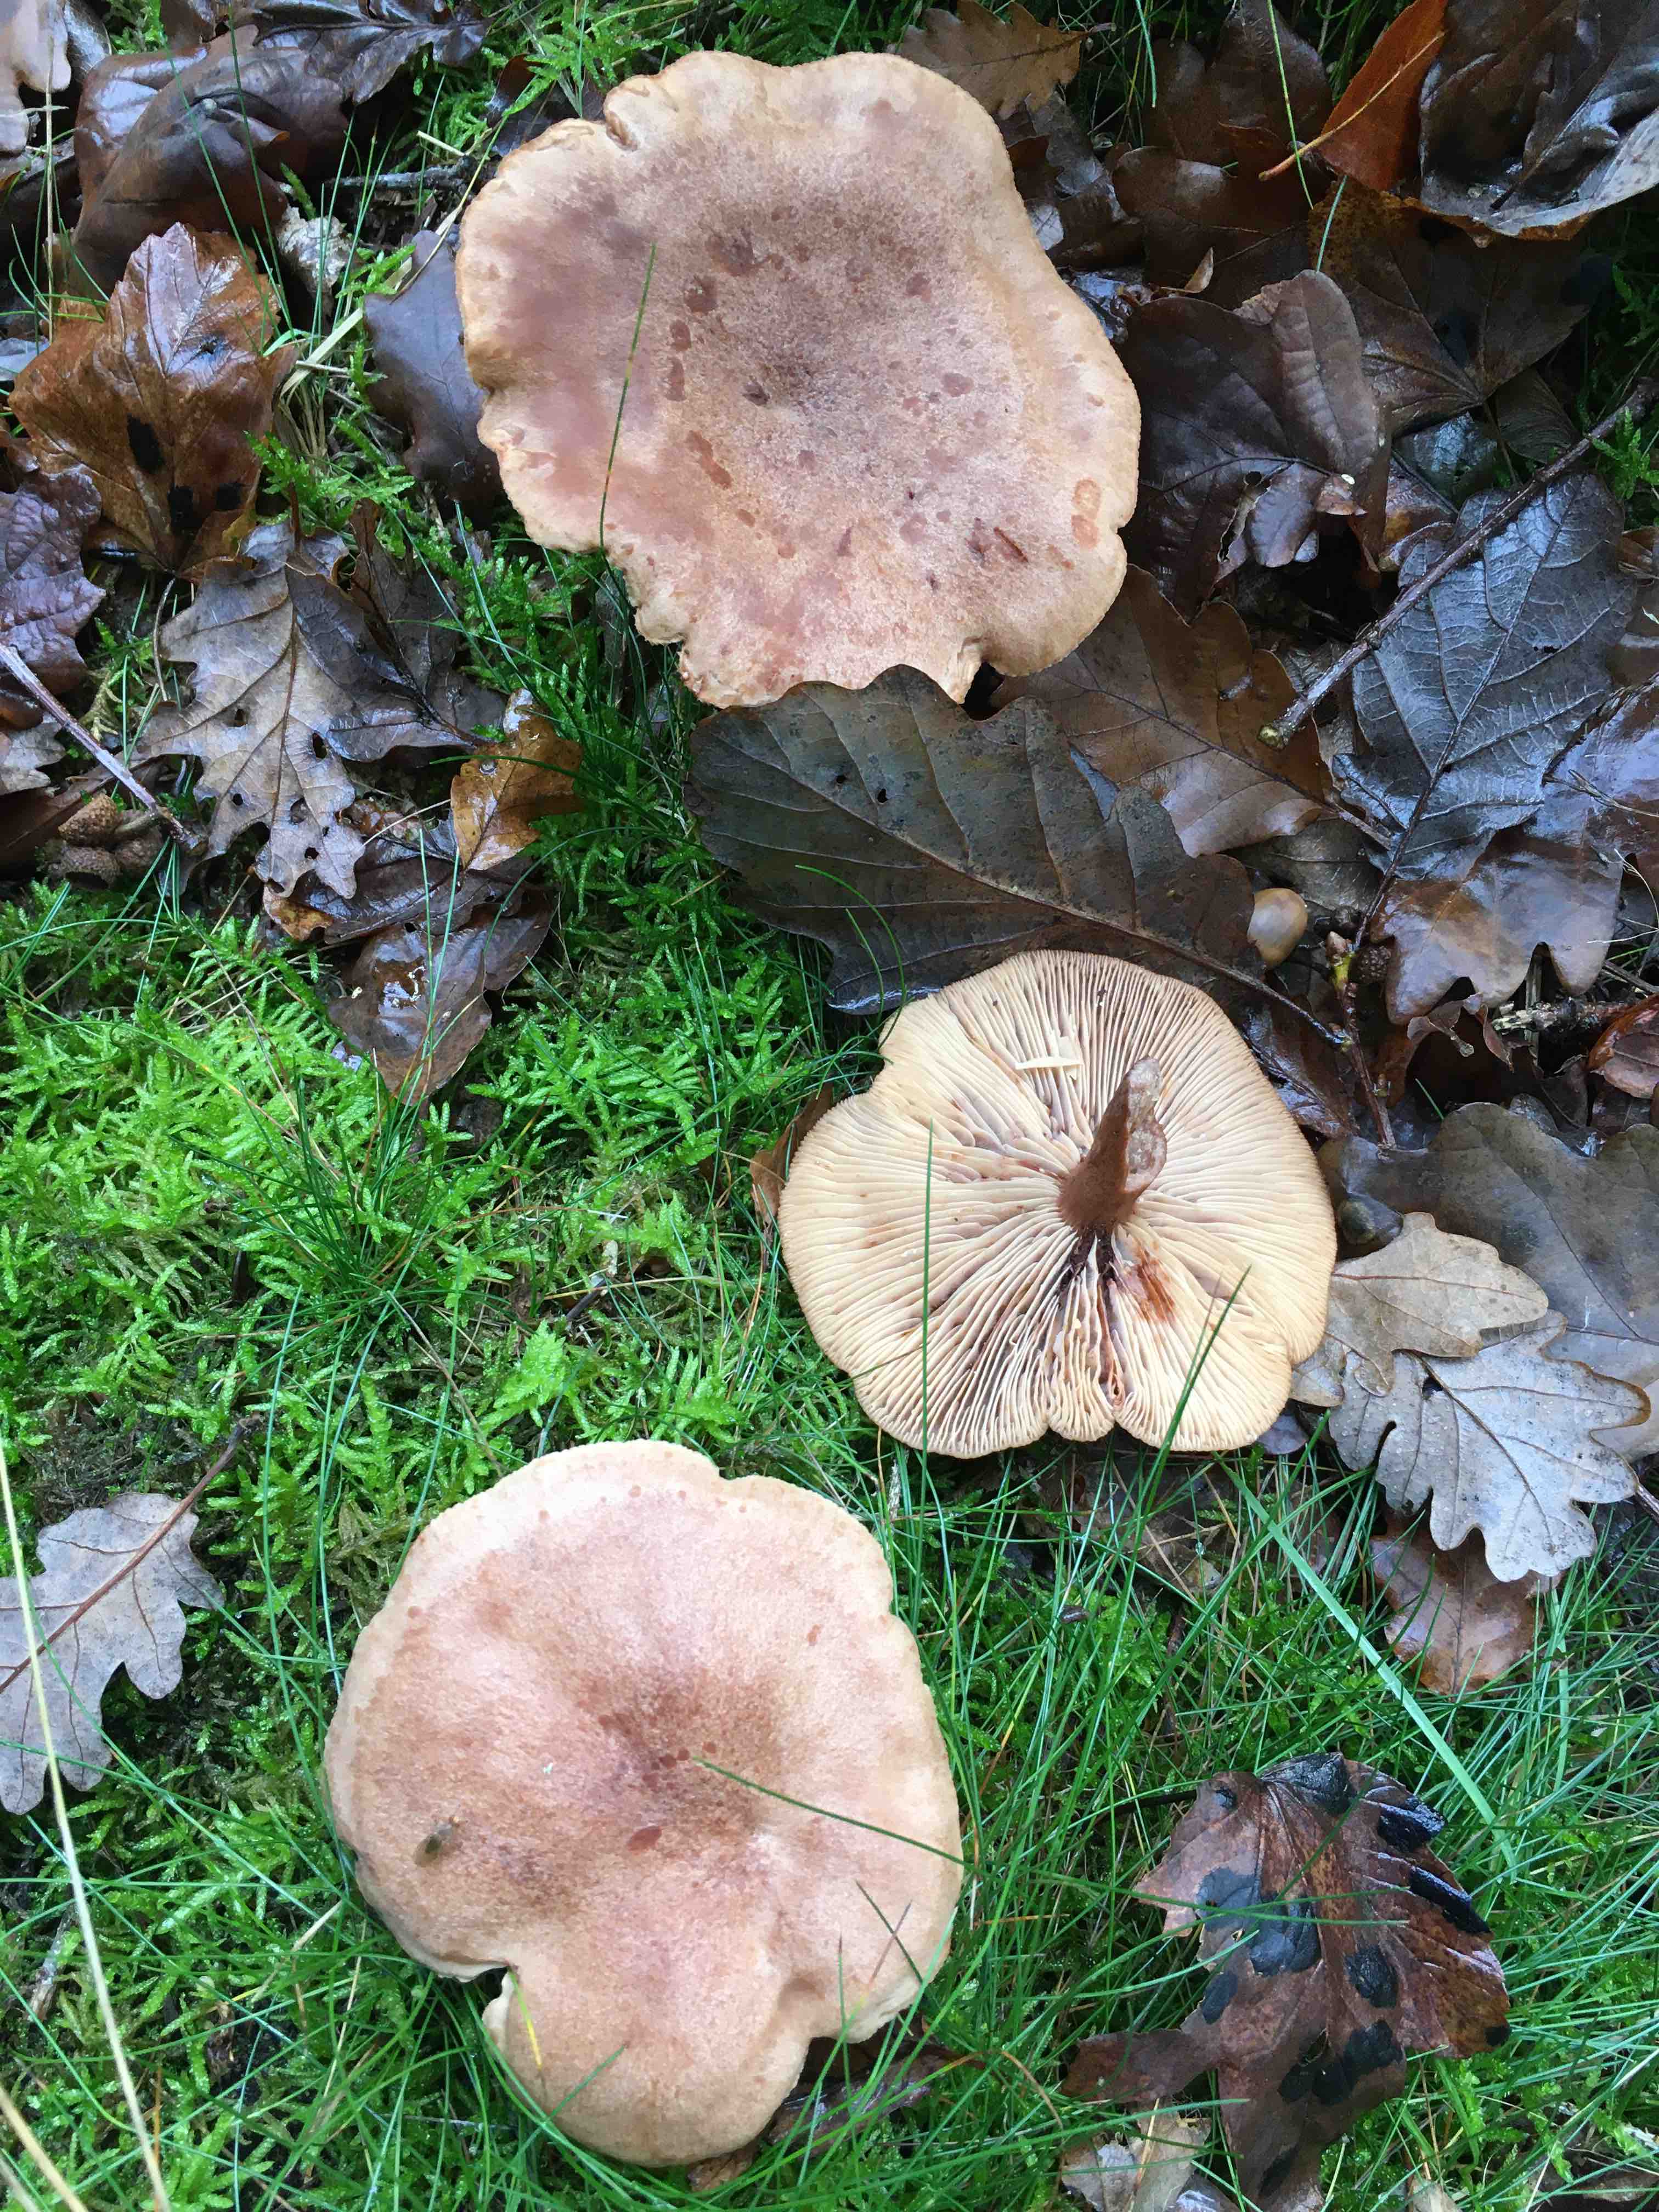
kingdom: Fungi
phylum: Basidiomycota
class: Agaricomycetes
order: Russulales
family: Russulaceae
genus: Lactarius
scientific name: Lactarius quietus
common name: ege-mælkehat
